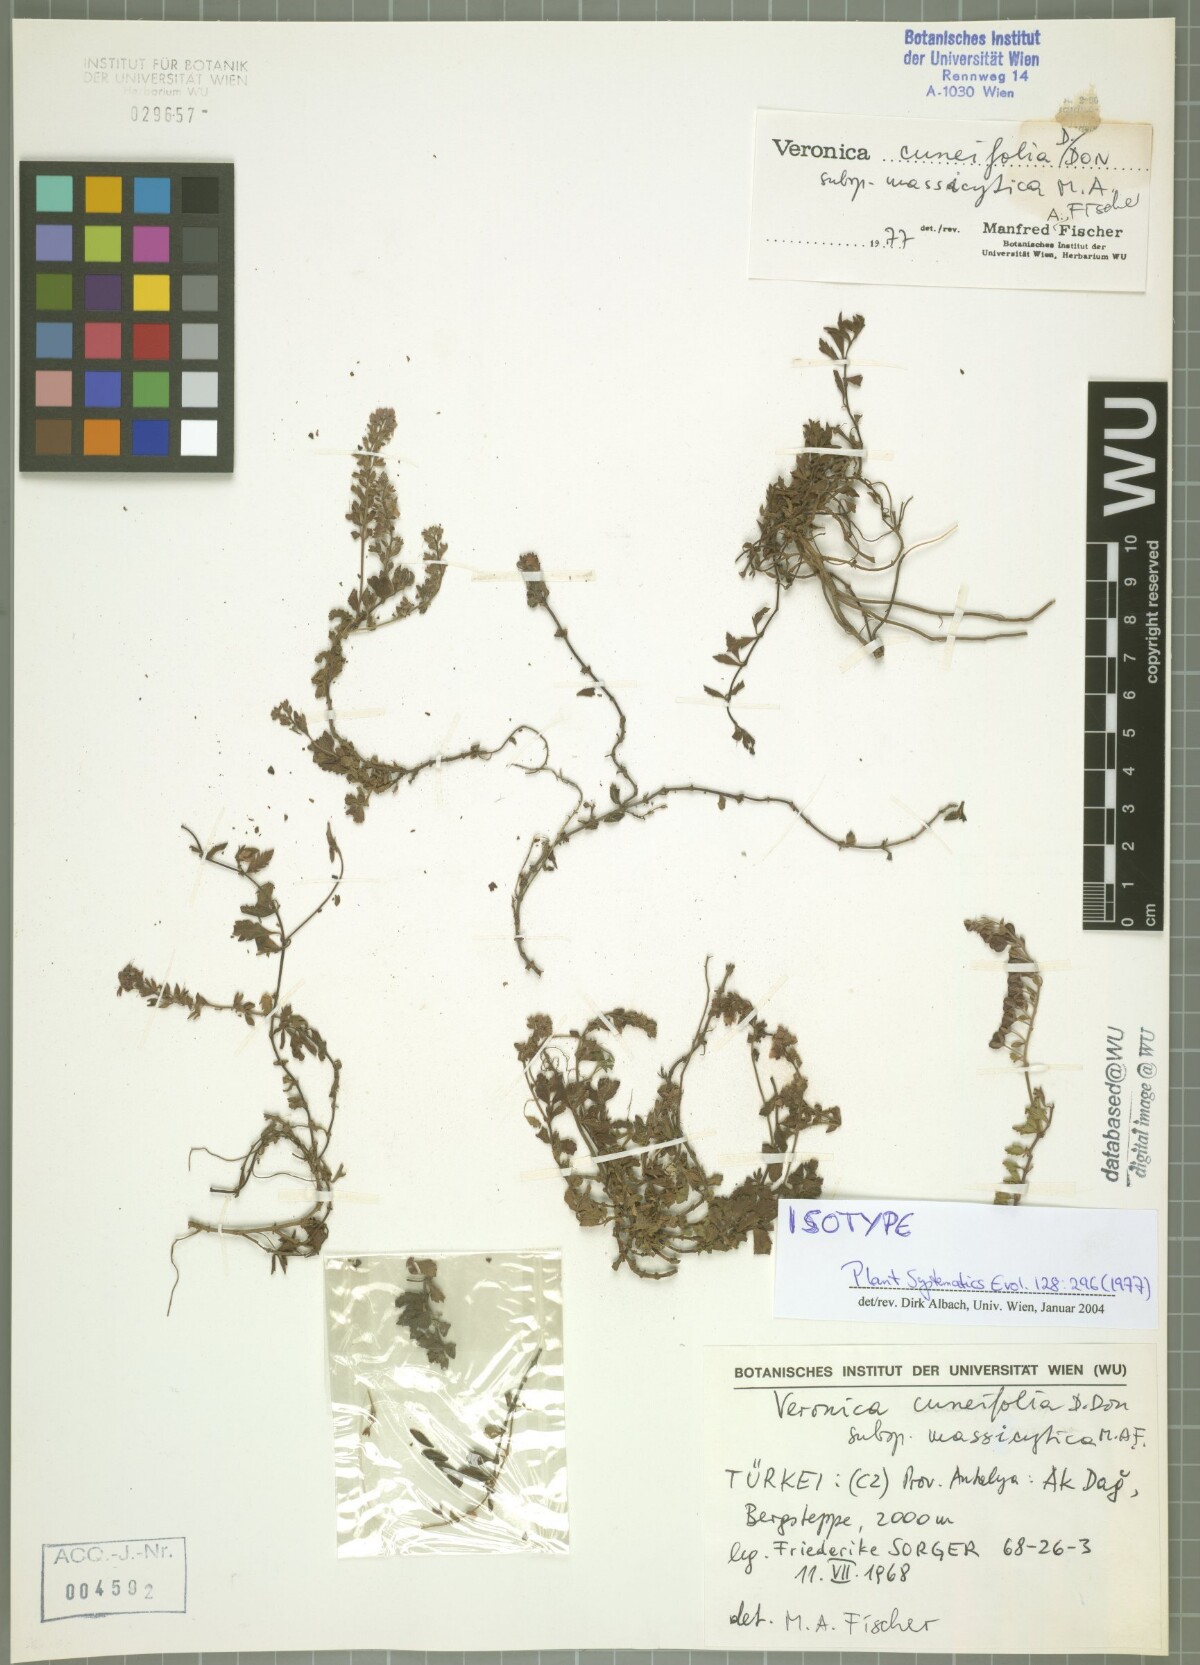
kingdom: Plantae
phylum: Tracheophyta
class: Magnoliopsida
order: Lamiales
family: Plantaginaceae
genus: Veronica
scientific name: Veronica cuneifolia
